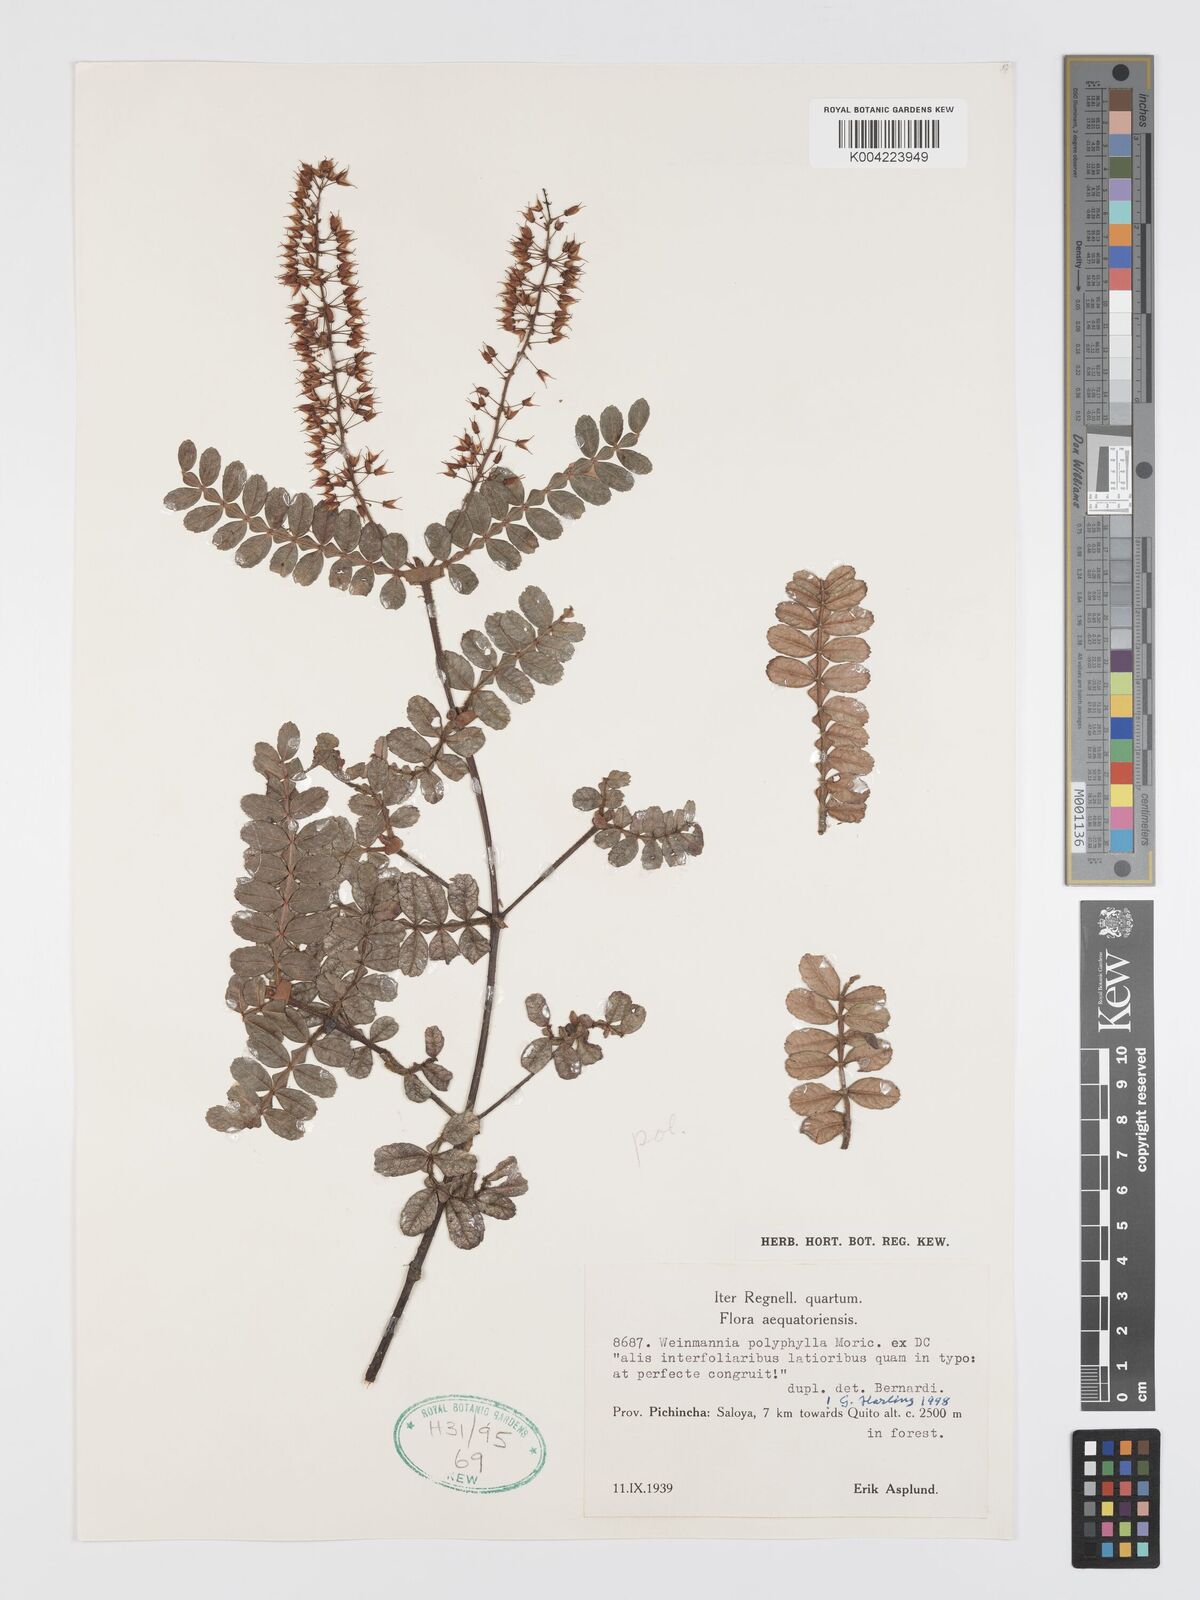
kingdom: Plantae
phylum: Tracheophyta
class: Magnoliopsida
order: Oxalidales
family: Cunoniaceae
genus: Weinmannia
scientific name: Weinmannia polyphylla
